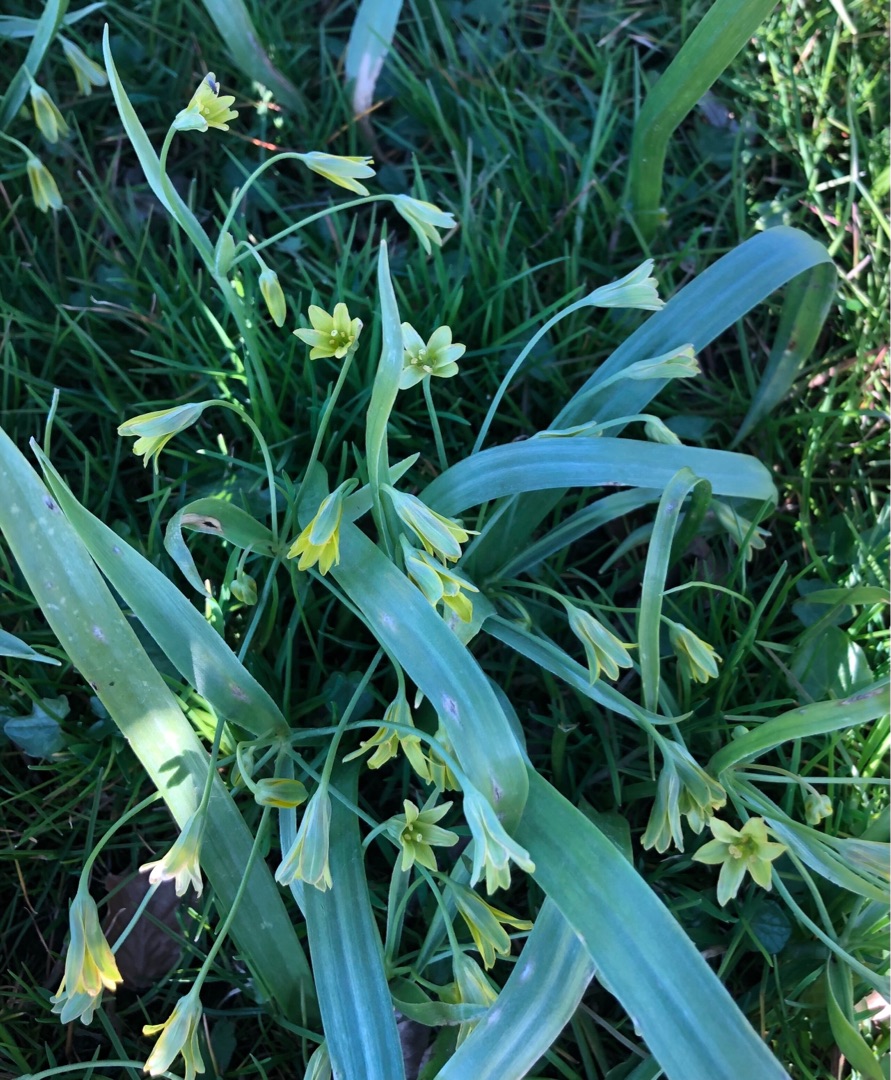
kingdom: Plantae
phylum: Tracheophyta
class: Liliopsida
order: Liliales
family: Liliaceae
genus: Gagea
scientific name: Gagea lutea
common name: Almindelig guldstjerne
